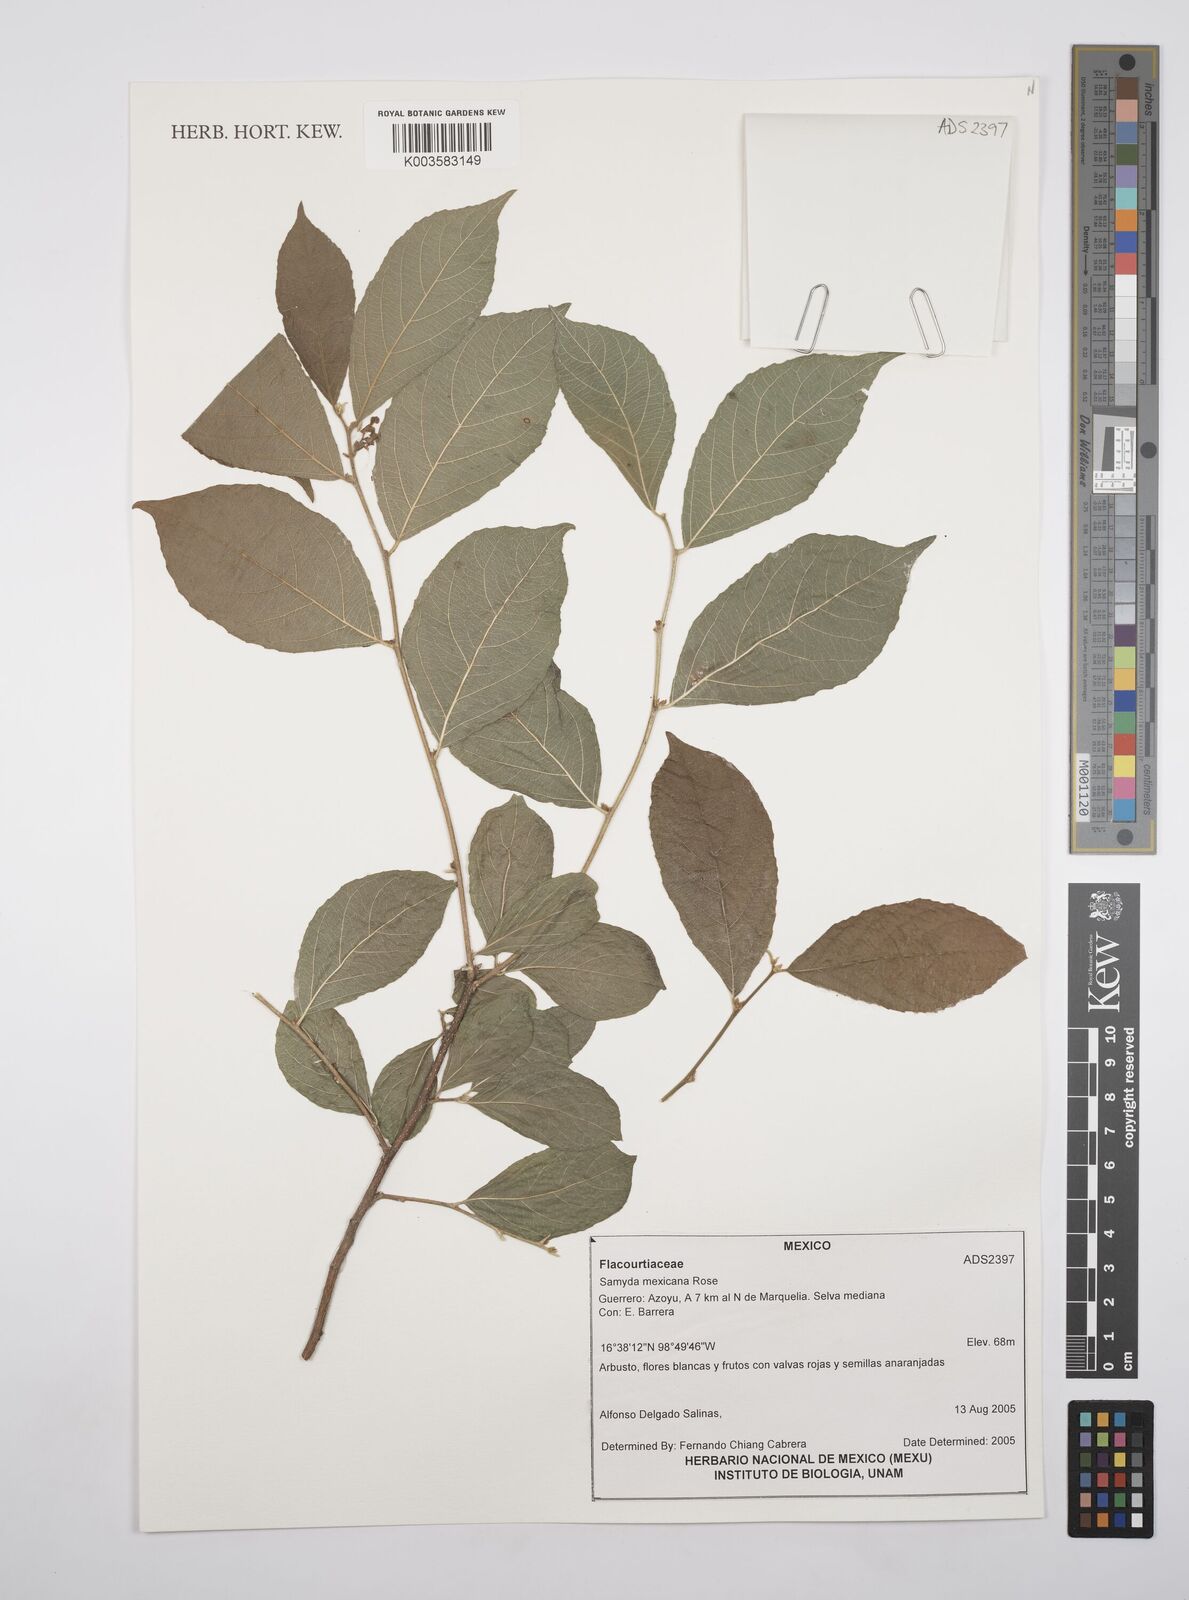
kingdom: Plantae
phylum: Tracheophyta
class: Magnoliopsida
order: Malpighiales
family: Salicaceae
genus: Casearia
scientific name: Casearia mexicana
